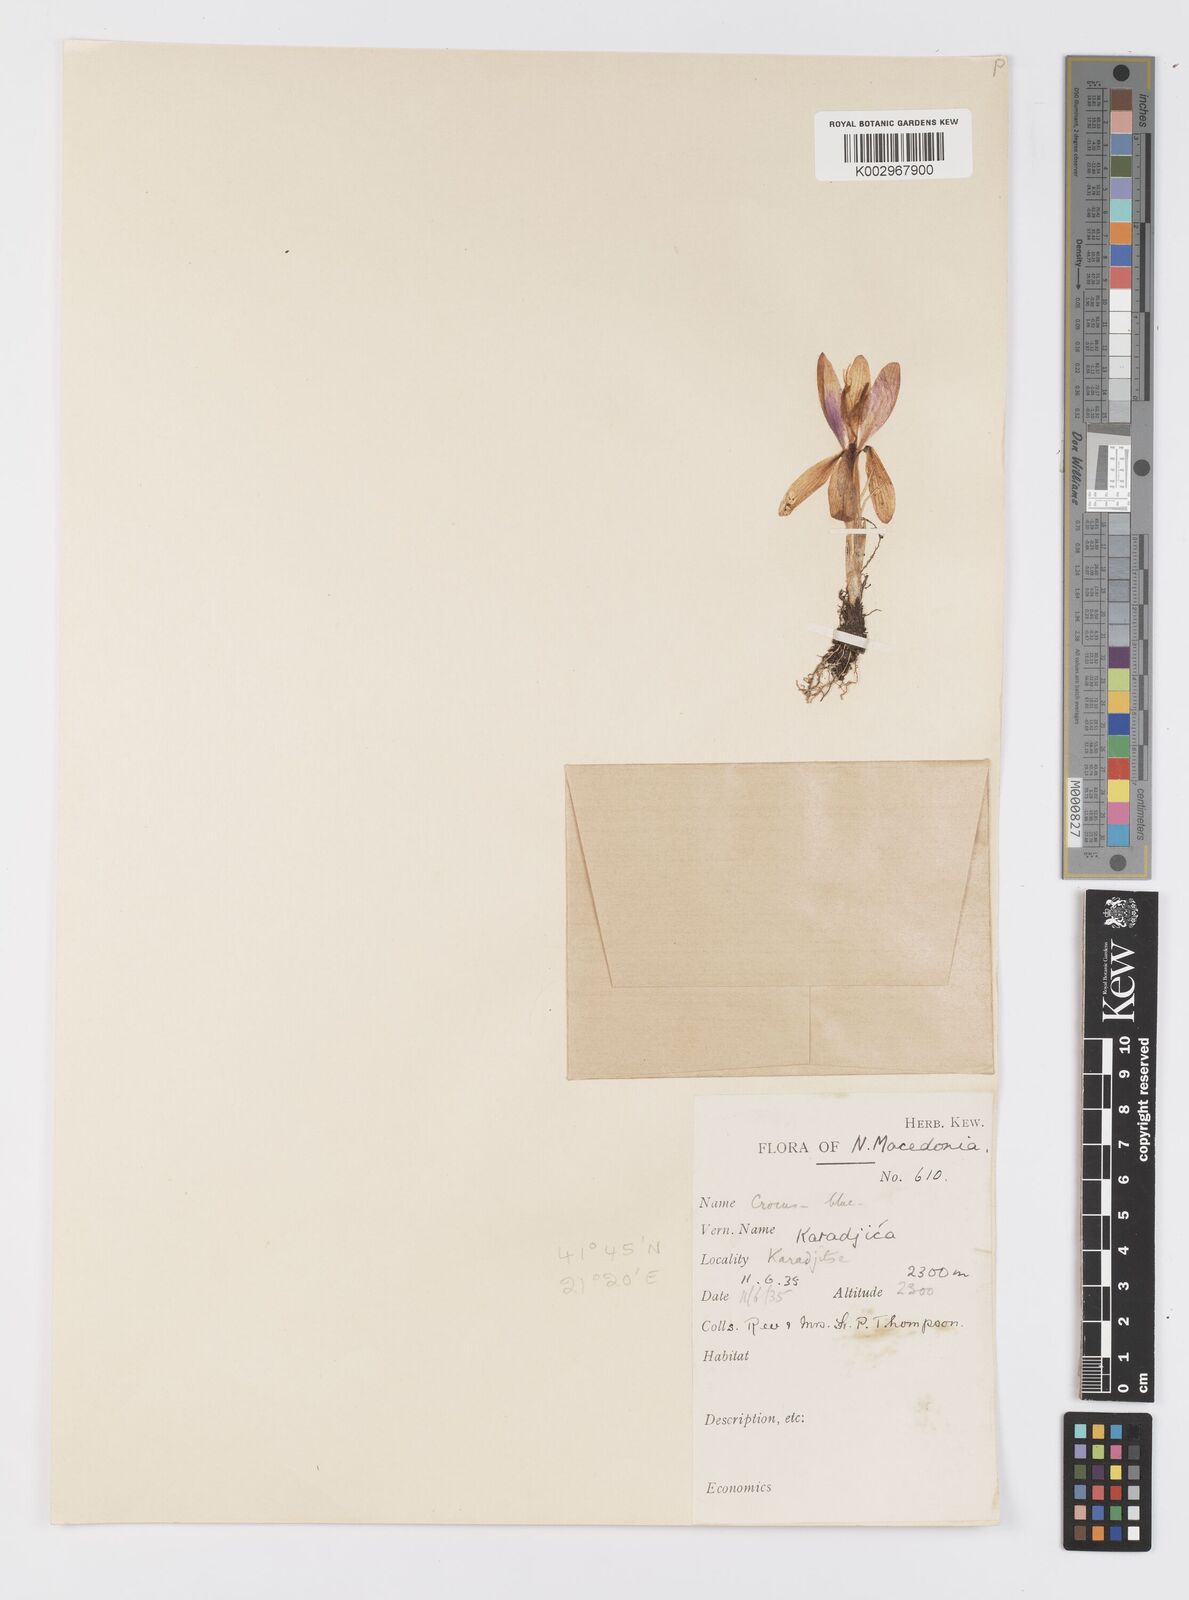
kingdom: Plantae
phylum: Tracheophyta
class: Liliopsida
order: Asparagales
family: Iridaceae
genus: Crocus
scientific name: Crocus pelistericus
